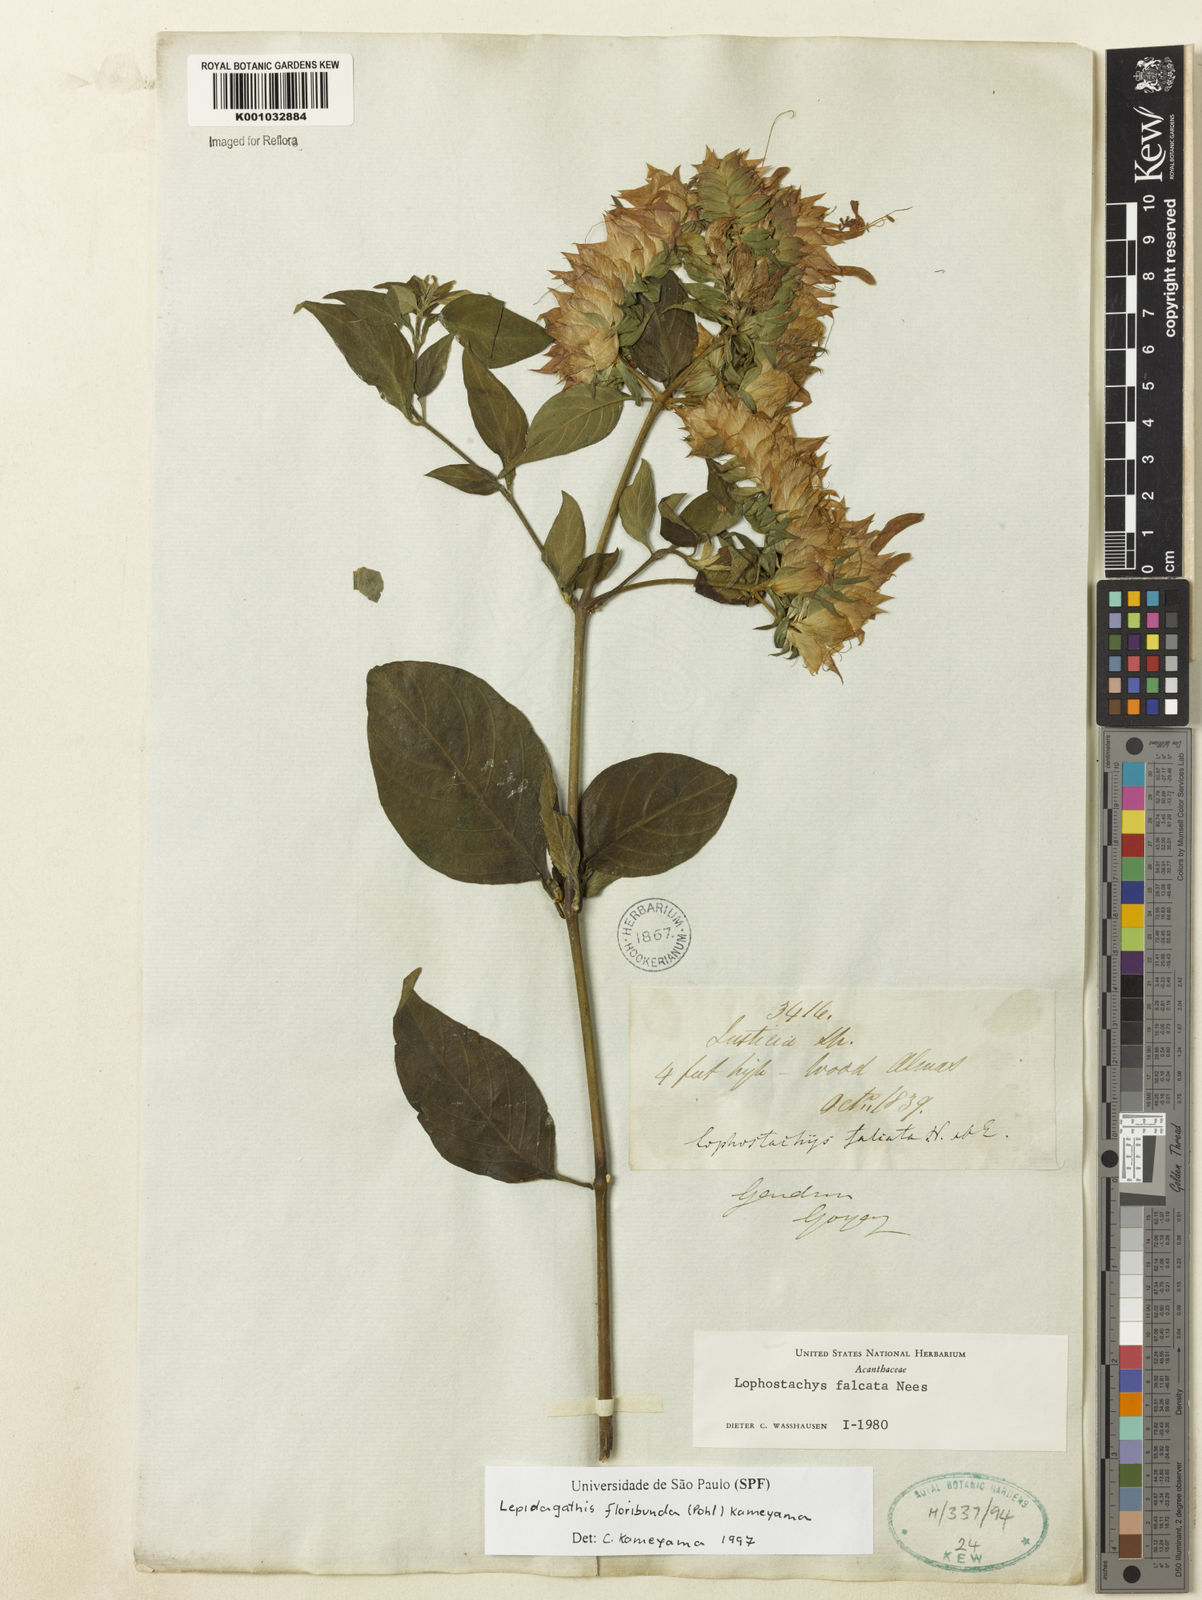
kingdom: Plantae
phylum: Tracheophyta
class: Magnoliopsida
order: Lamiales
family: Acanthaceae
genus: Lepidagathis
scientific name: Lepidagathis floribunda
